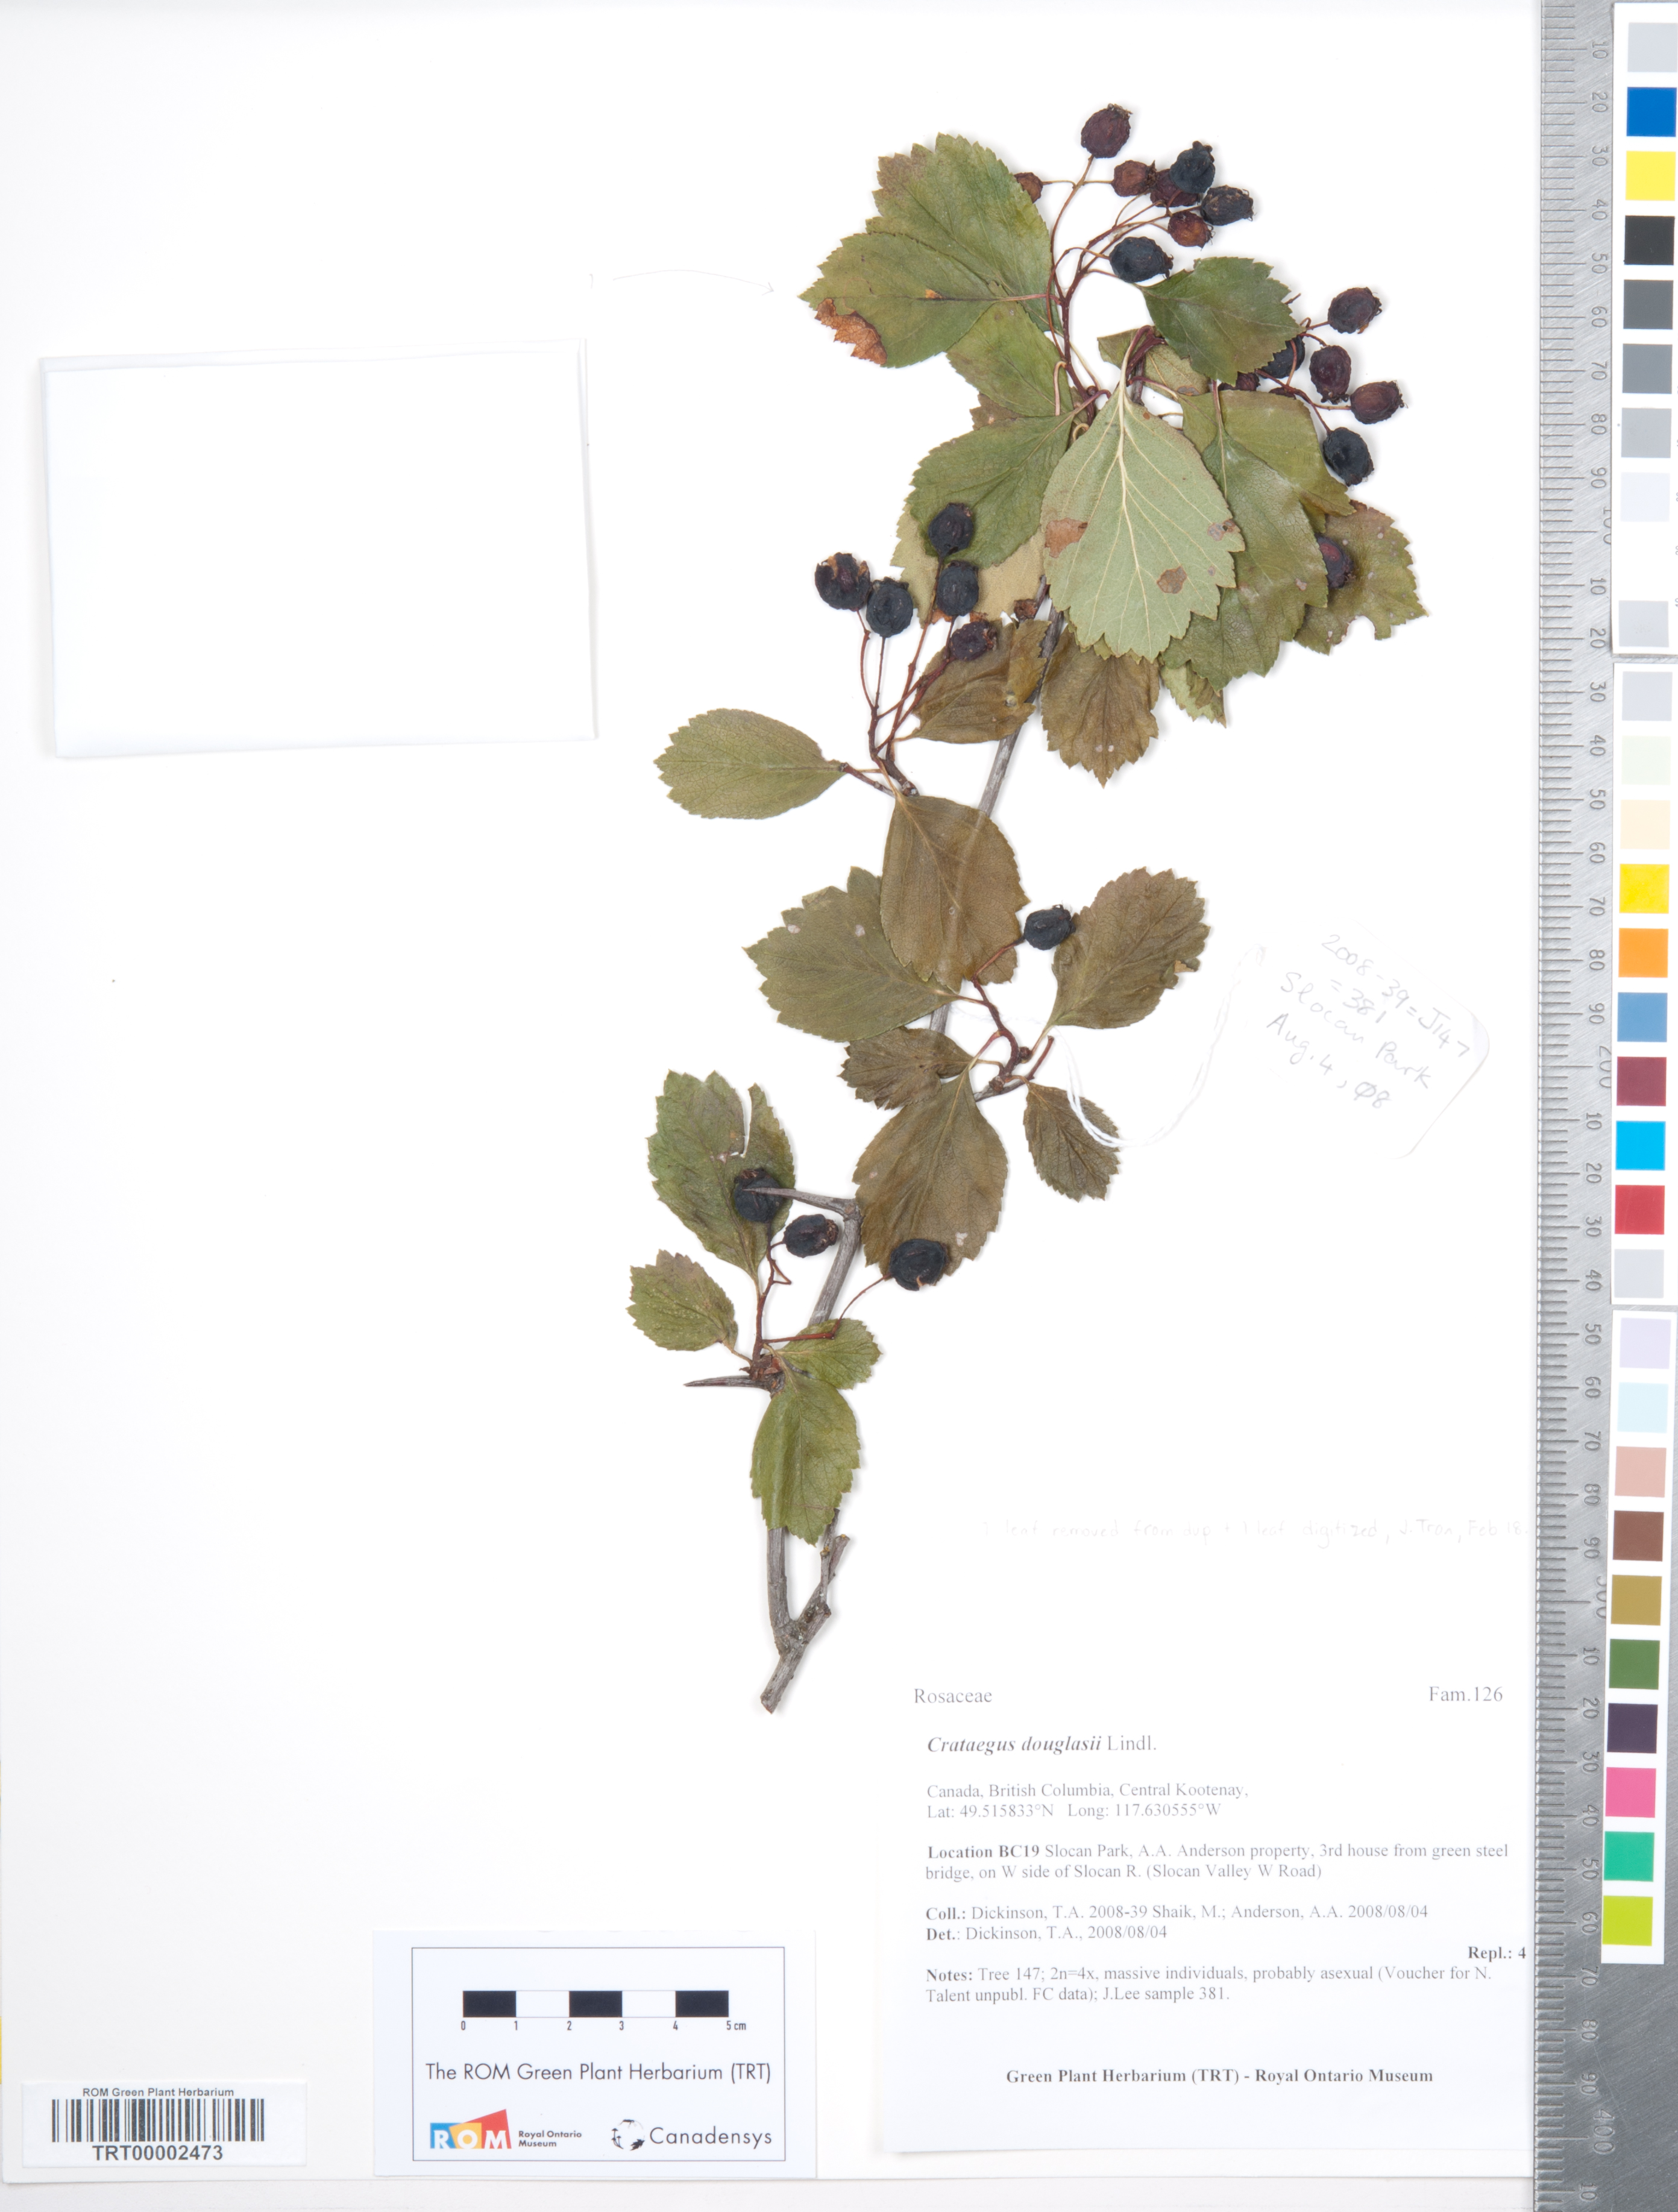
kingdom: Plantae
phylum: Tracheophyta
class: Magnoliopsida
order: Rosales
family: Rosaceae
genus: Crataegus
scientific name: Crataegus douglasii
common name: Black hawthorn
